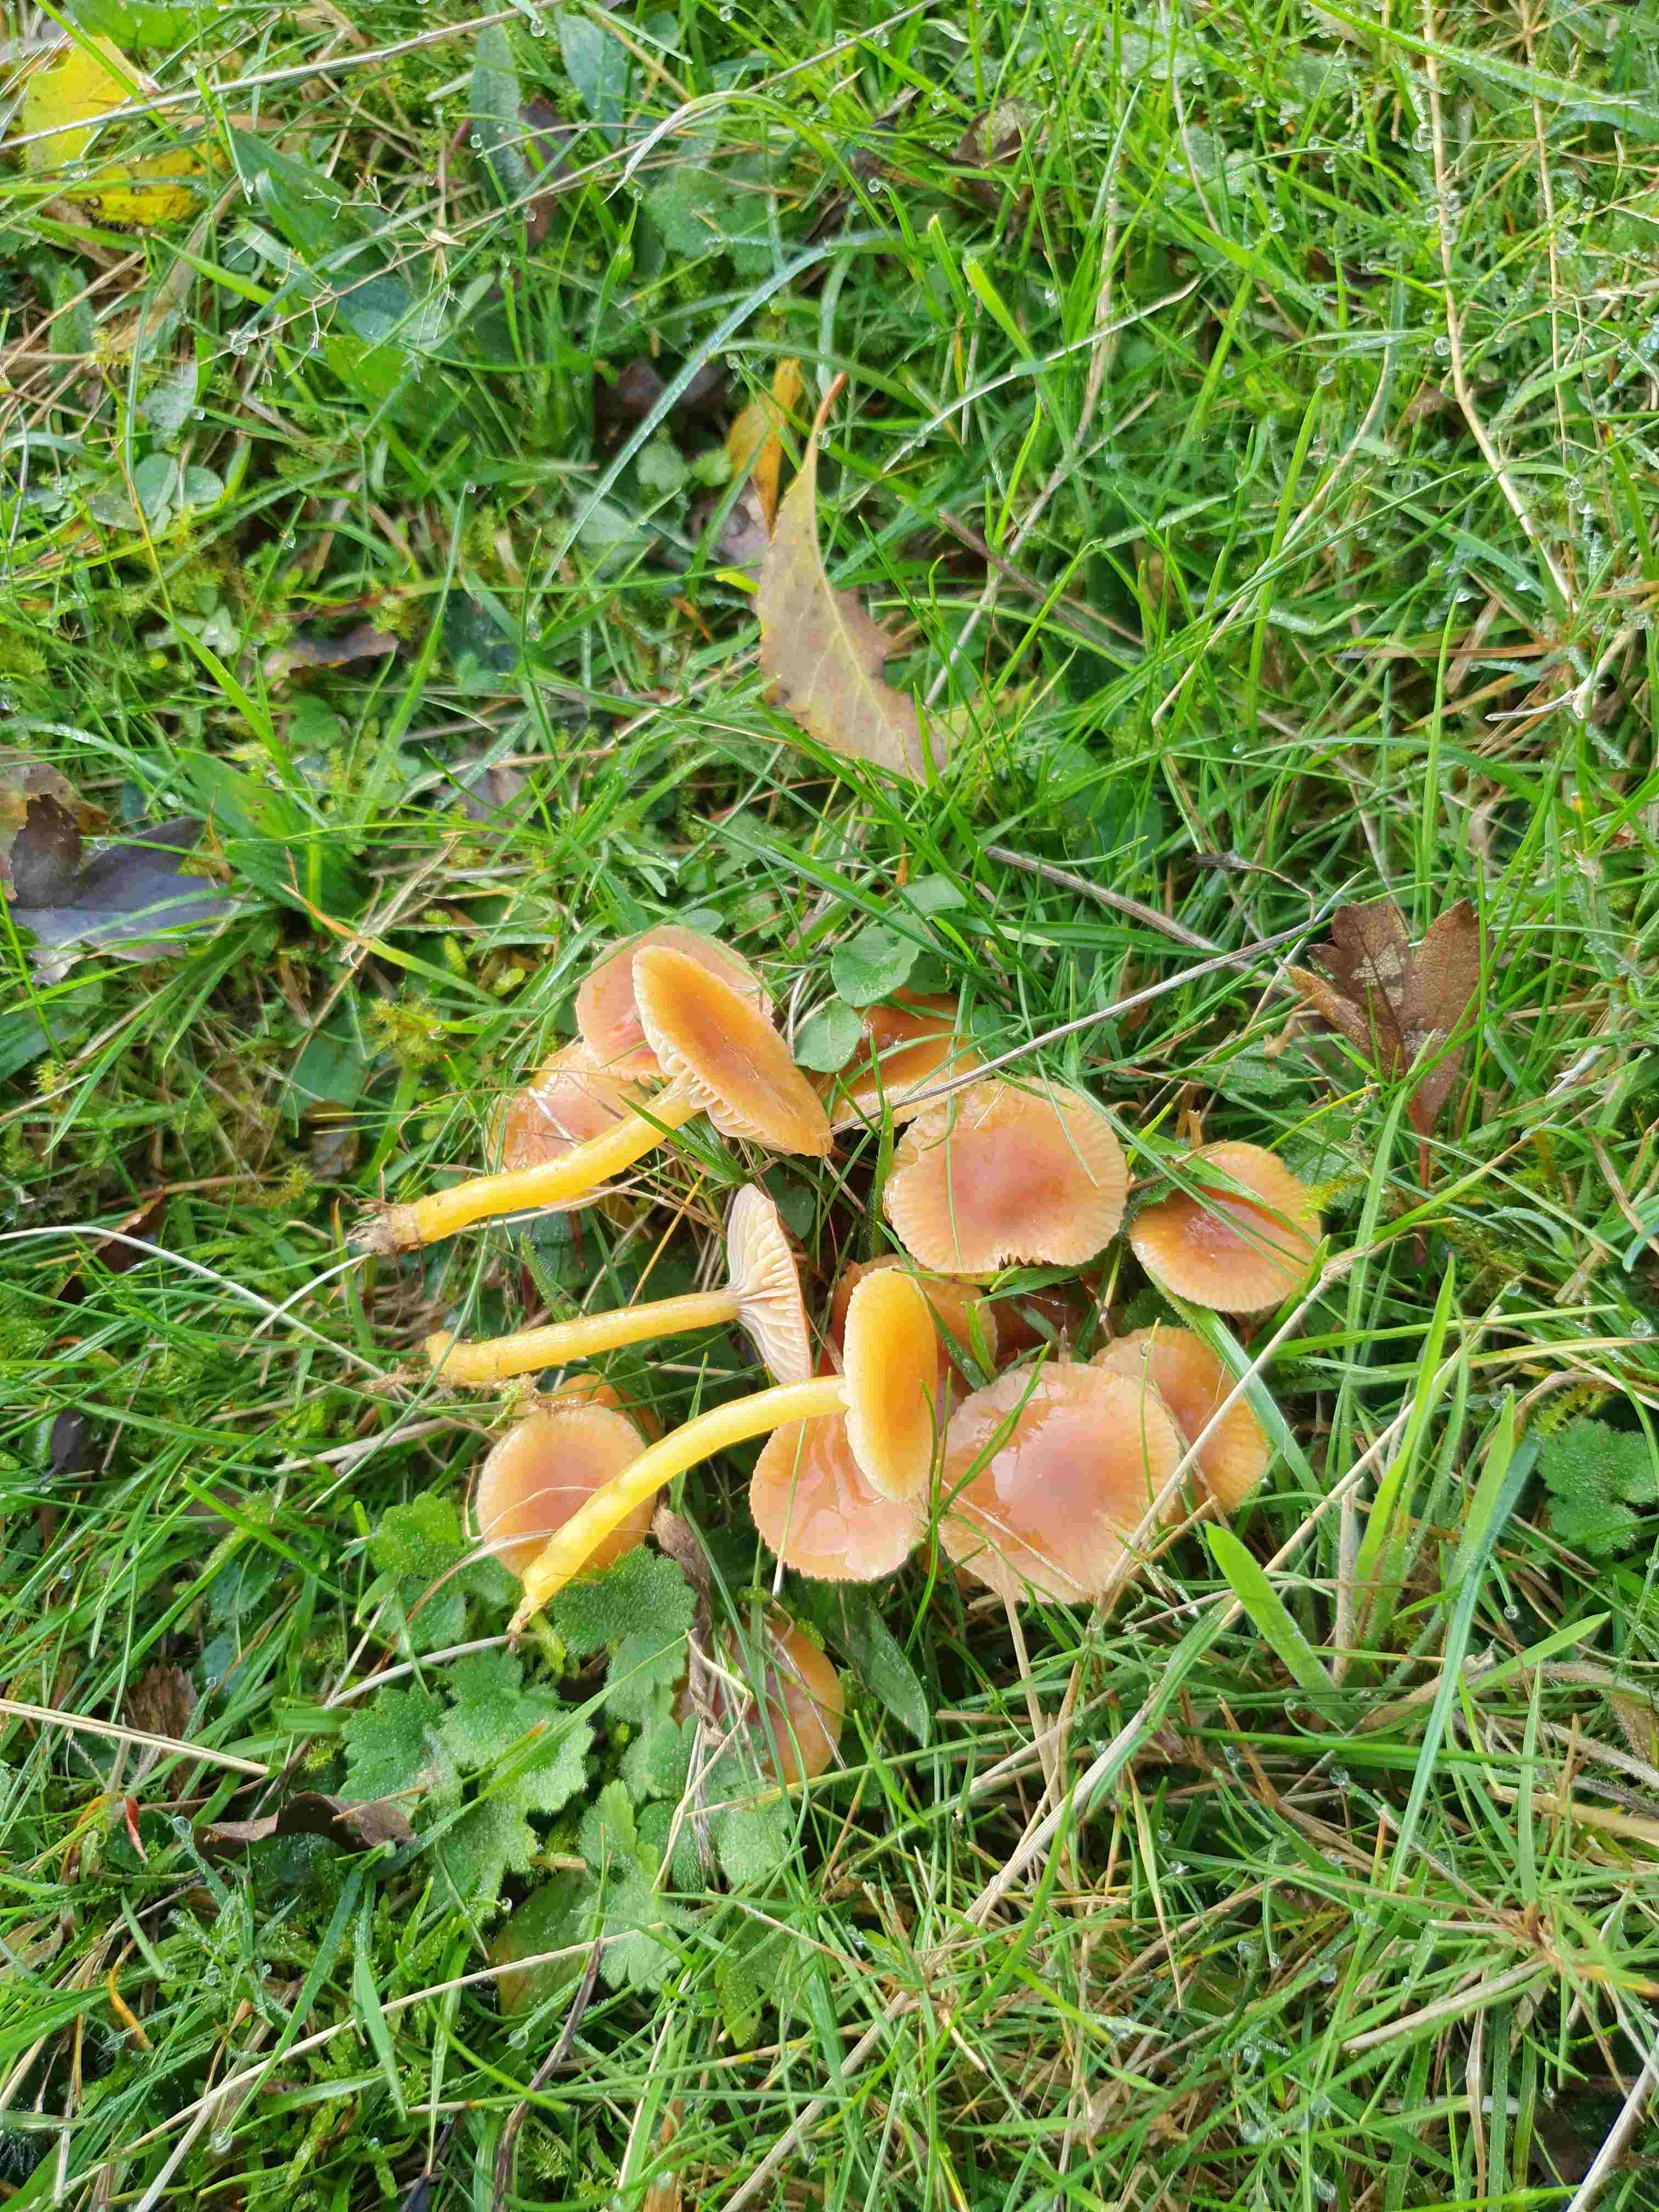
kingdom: Fungi
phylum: Basidiomycota
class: Agaricomycetes
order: Agaricales
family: Hygrophoraceae
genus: Gliophorus
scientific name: Gliophorus laetus
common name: brusk-vokshat
